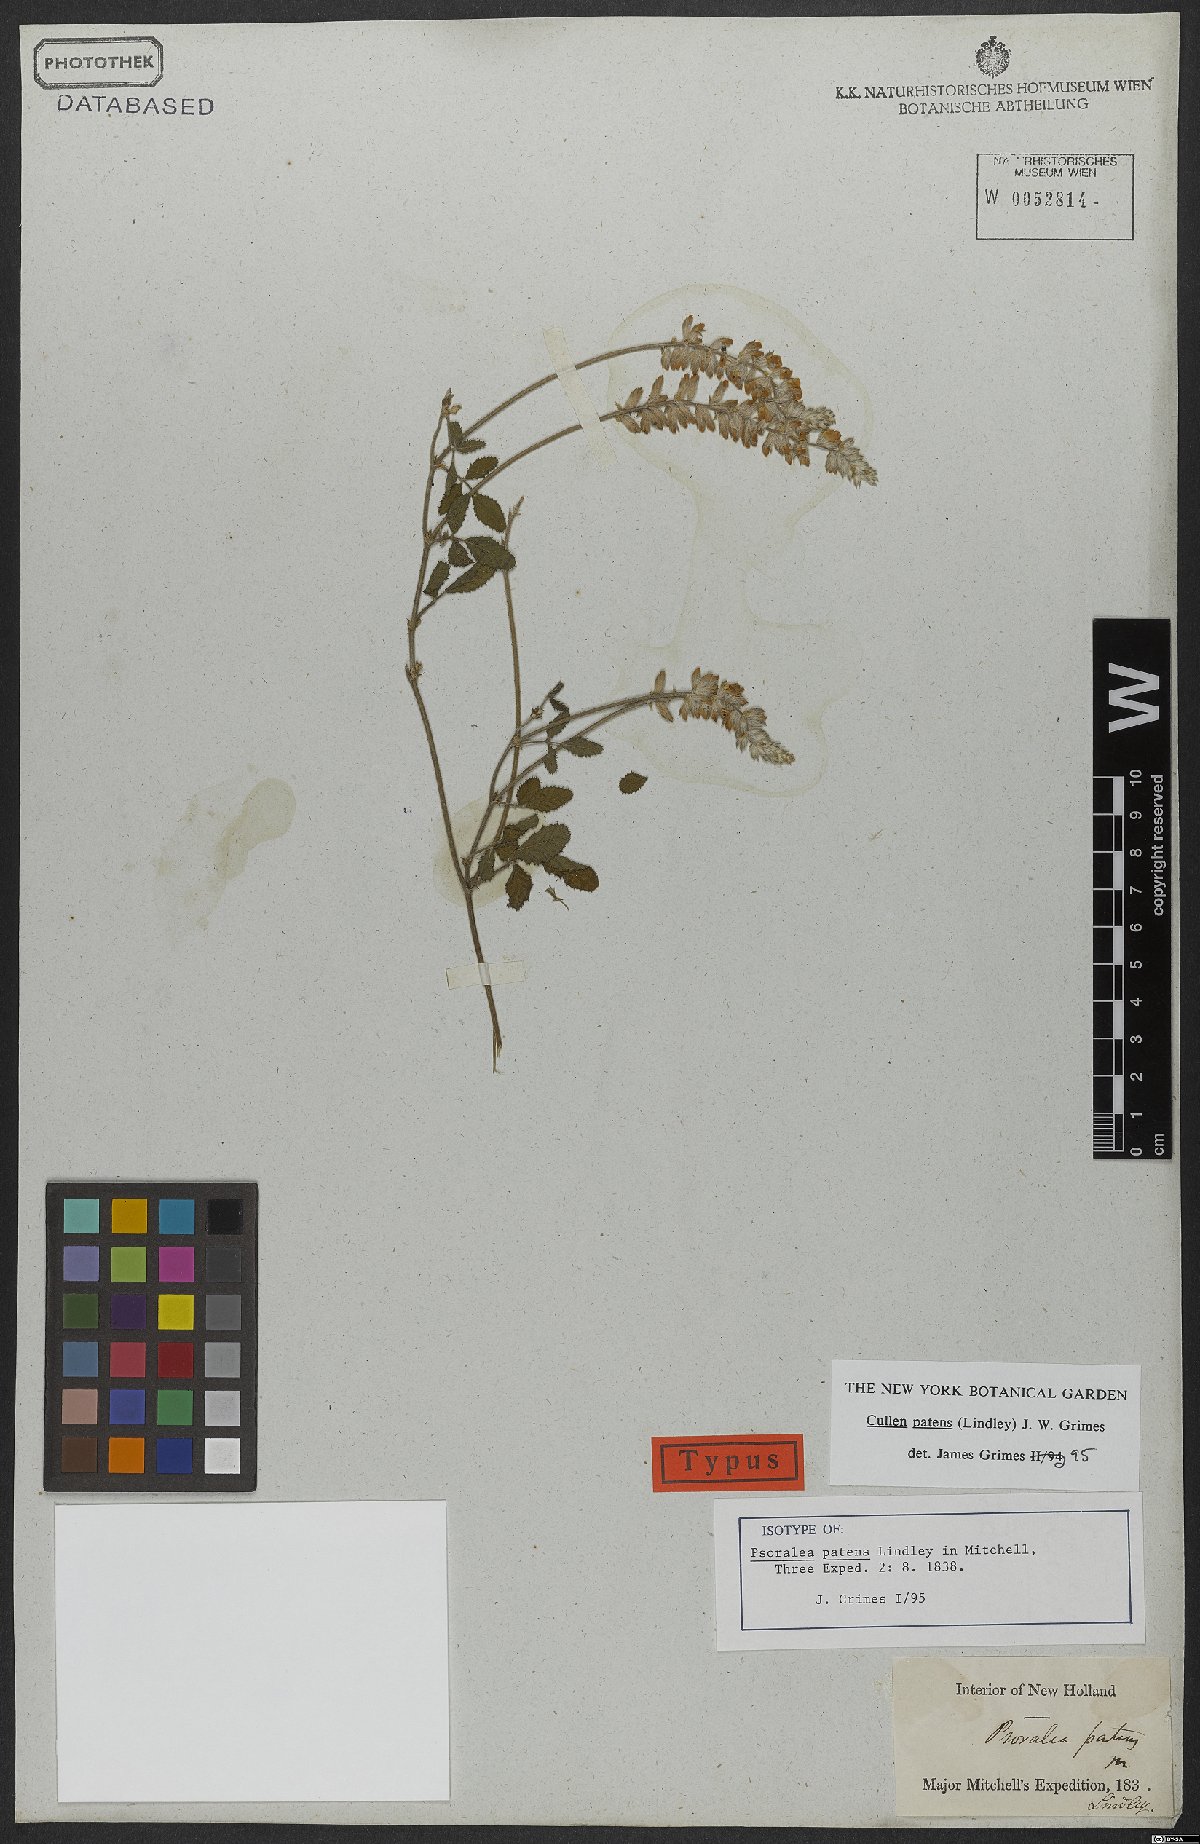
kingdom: Plantae
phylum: Tracheophyta
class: Magnoliopsida
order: Fabales
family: Fabaceae
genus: Cullen
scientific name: Cullen patens
